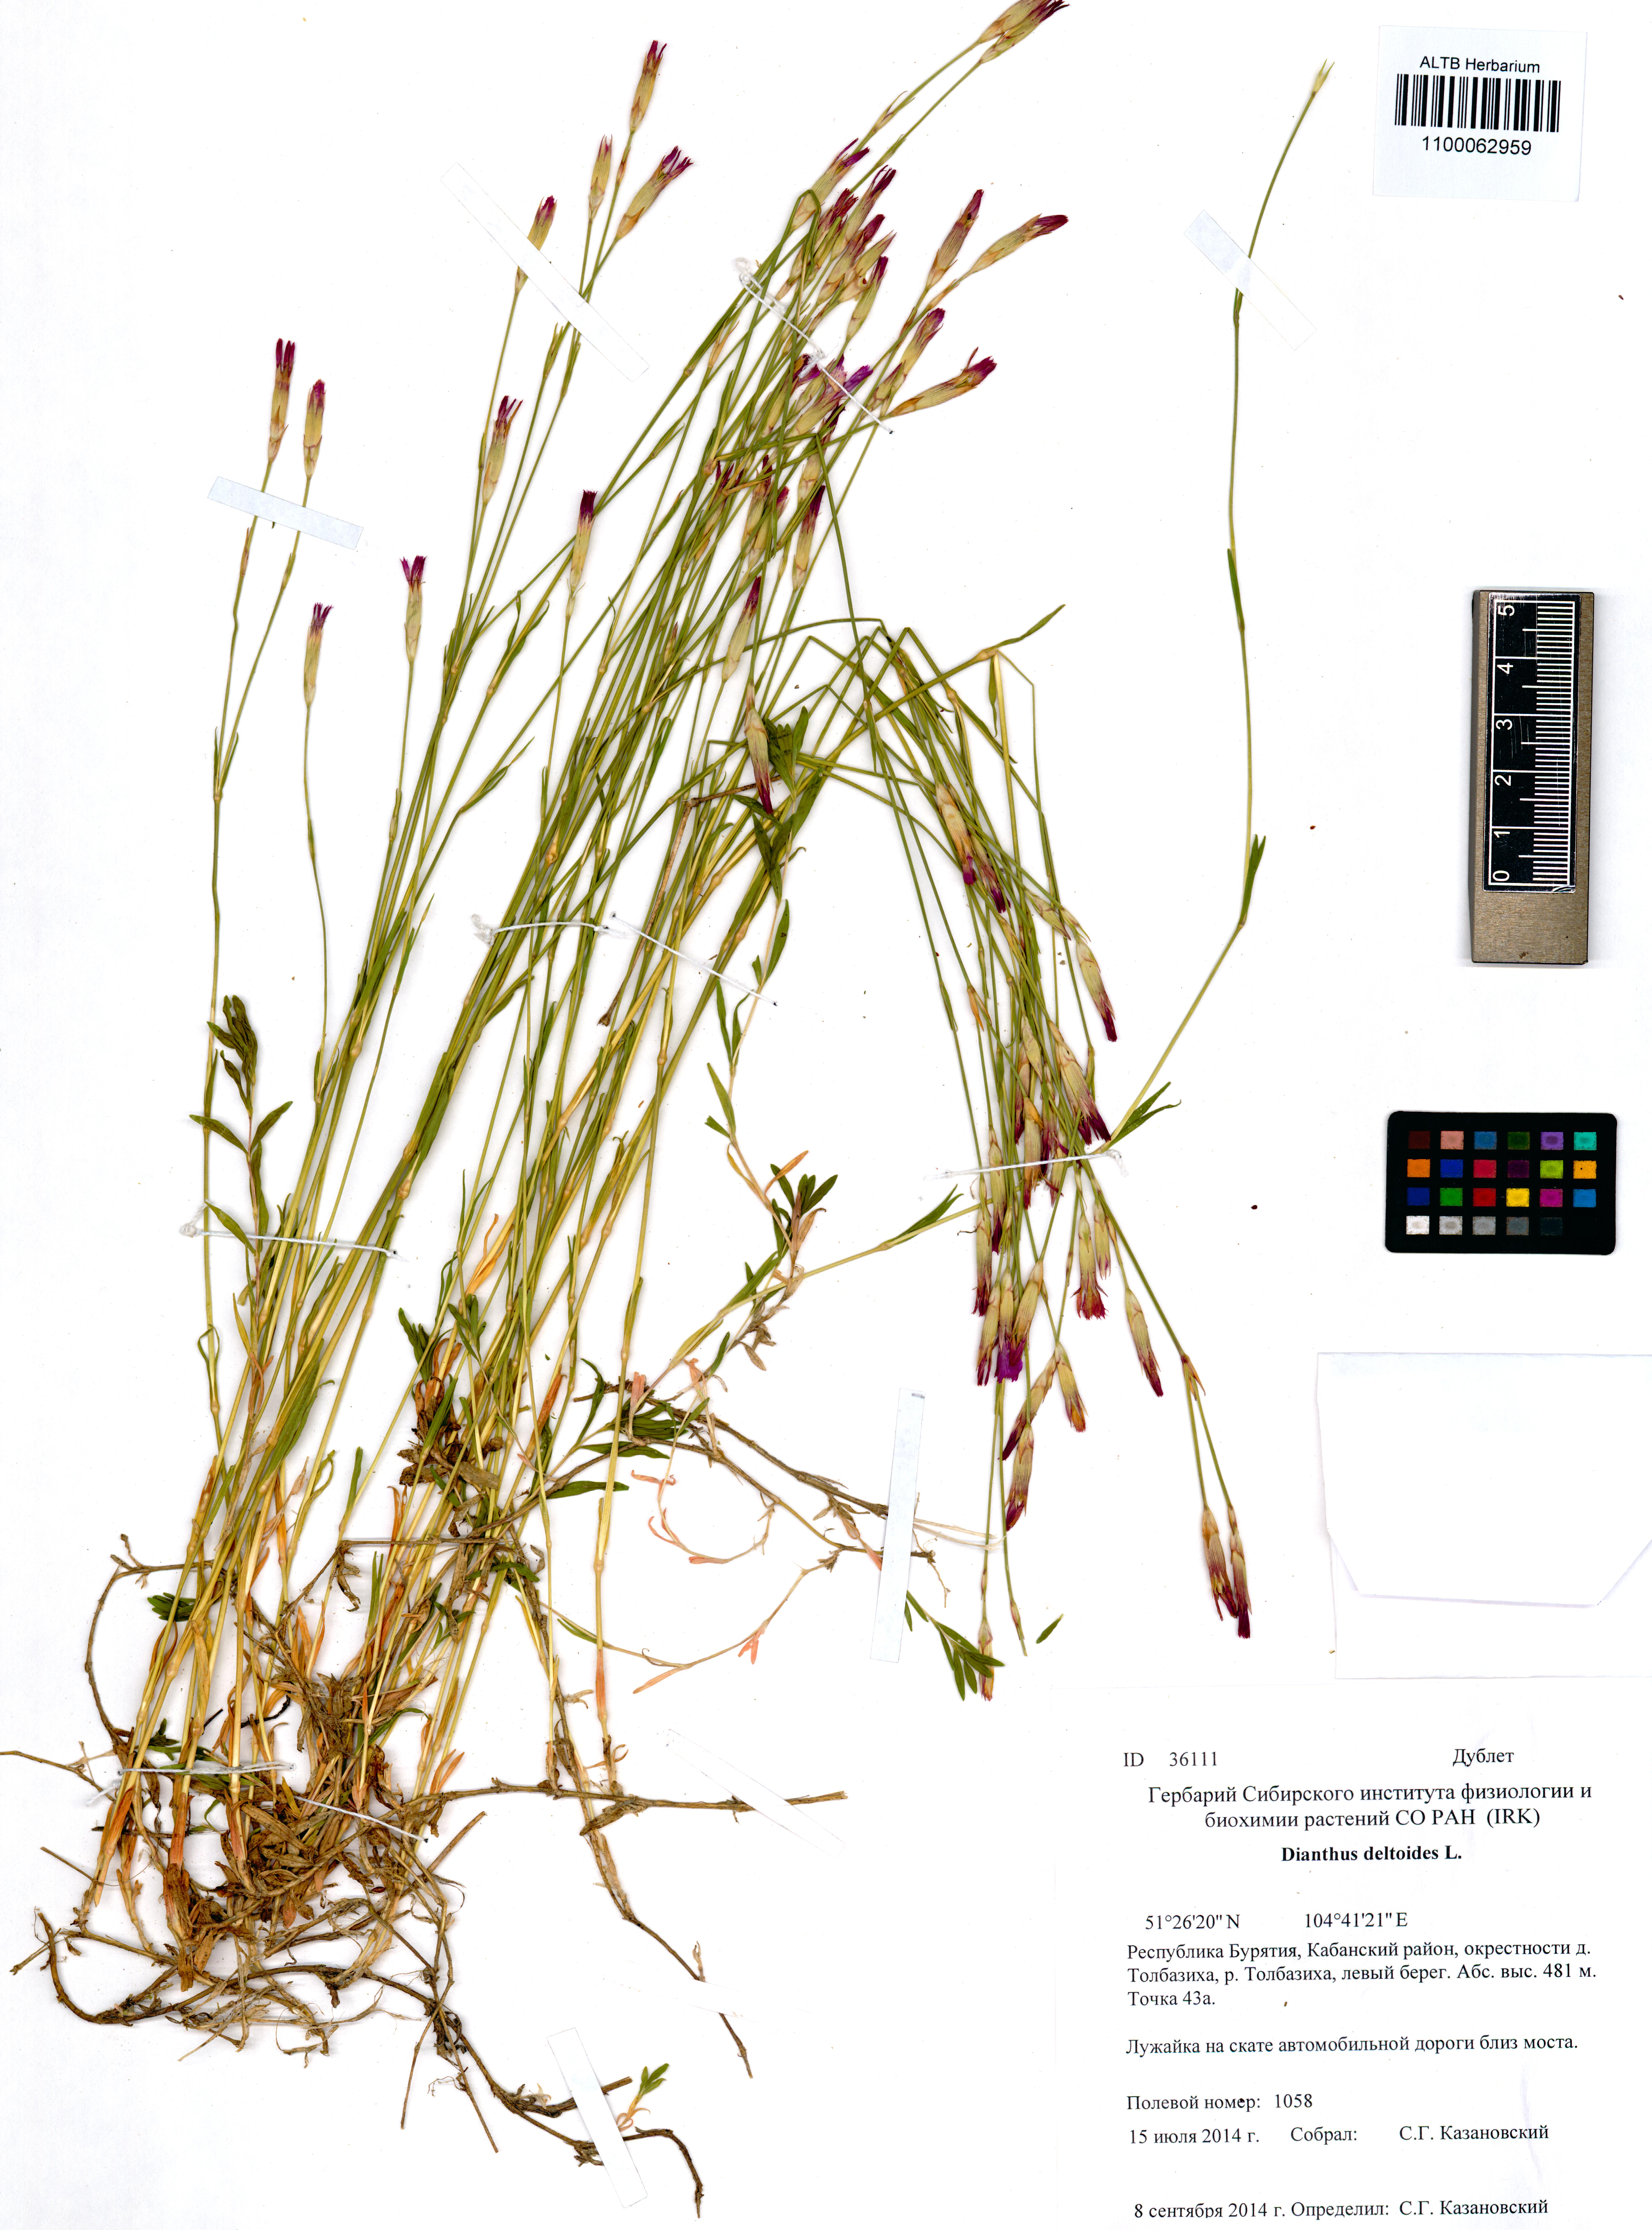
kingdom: Plantae
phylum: Tracheophyta
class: Magnoliopsida
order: Caryophyllales
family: Caryophyllaceae
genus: Dianthus
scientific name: Dianthus deltoides
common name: Maiden pink
